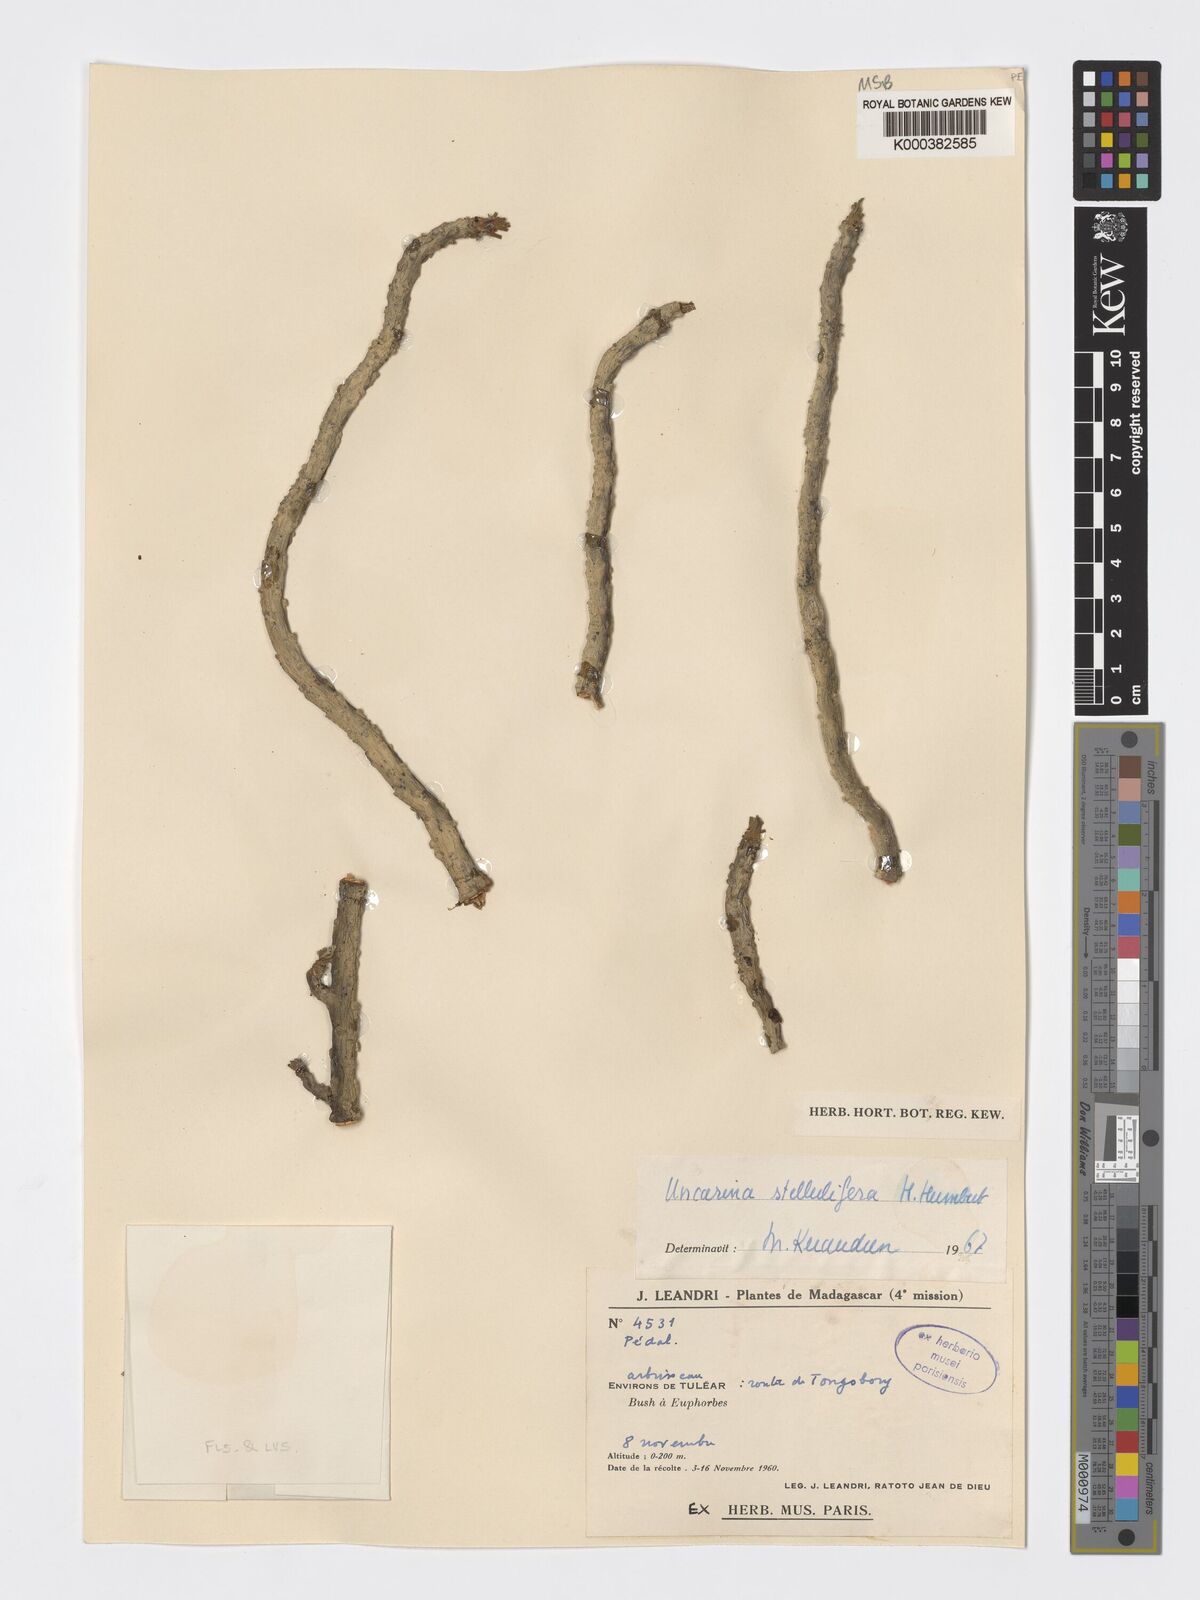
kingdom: Plantae
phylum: Tracheophyta
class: Magnoliopsida
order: Lamiales
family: Pedaliaceae
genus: Uncarina
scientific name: Uncarina stellulifera
